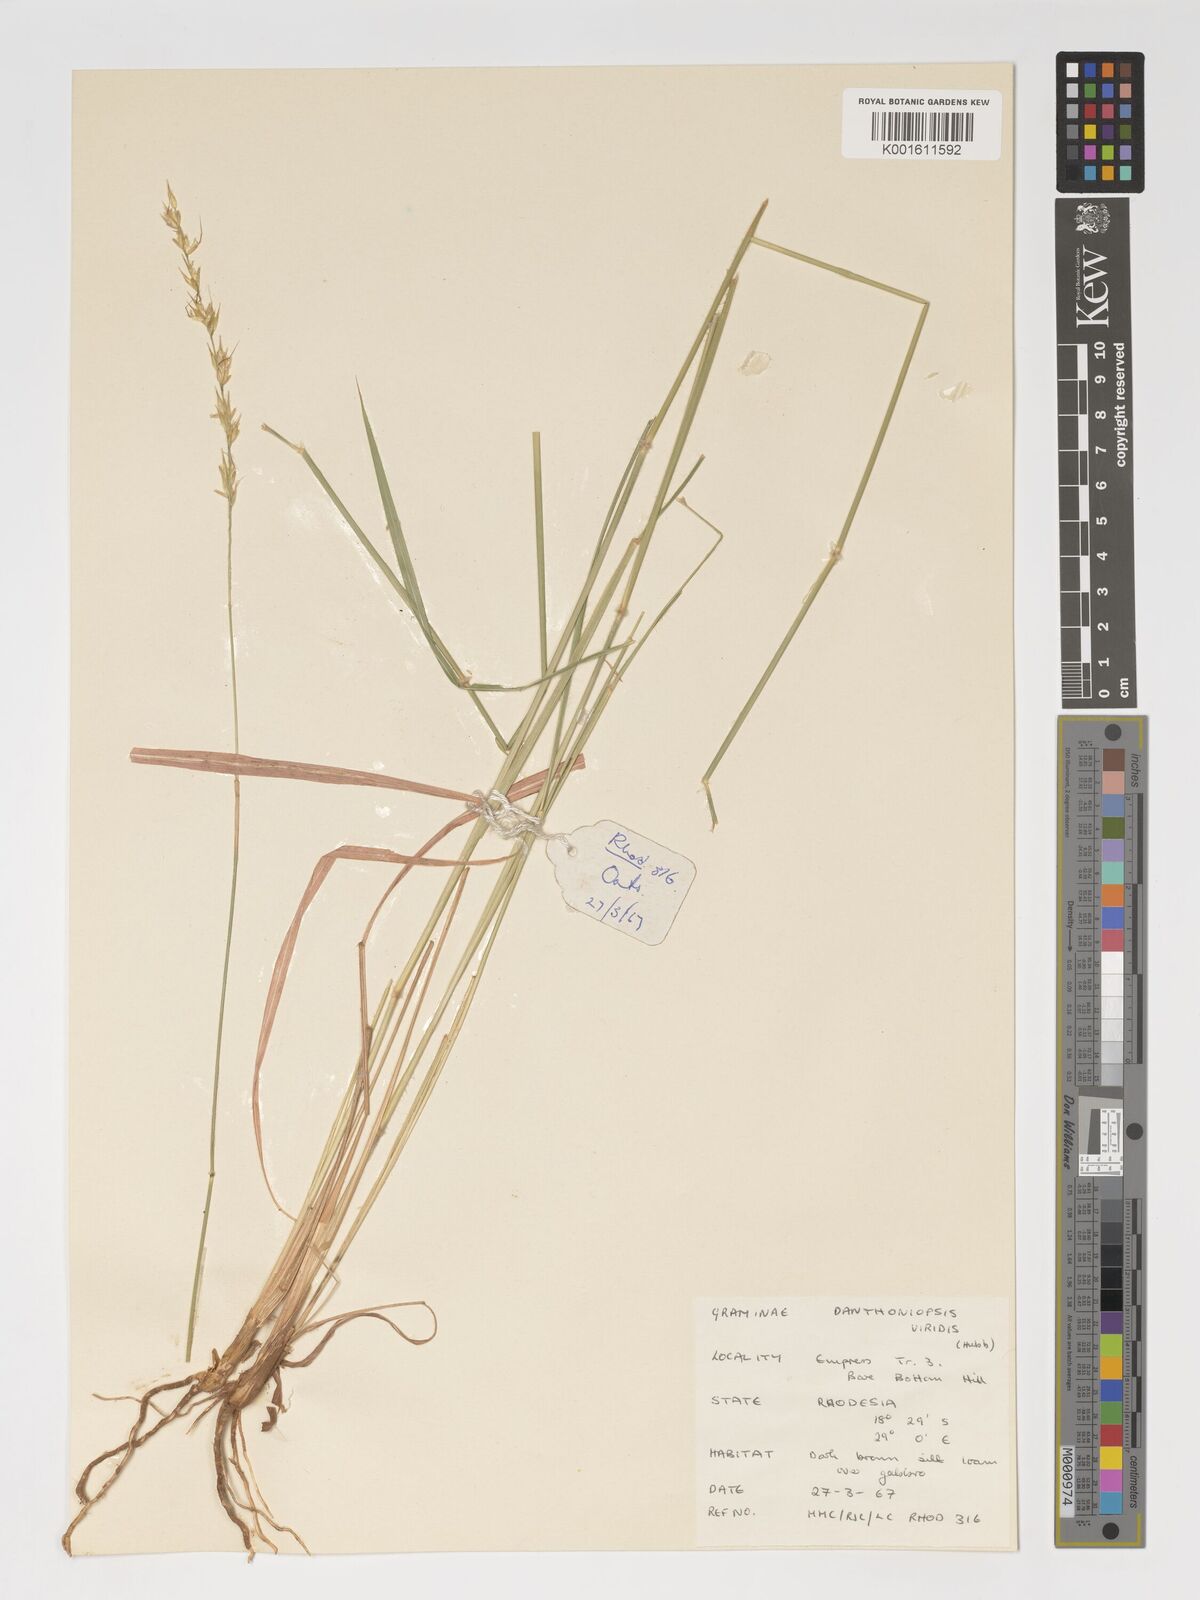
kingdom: Plantae
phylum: Tracheophyta
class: Liliopsida
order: Poales
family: Poaceae
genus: Danthoniopsis
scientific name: Danthoniopsis viridis
